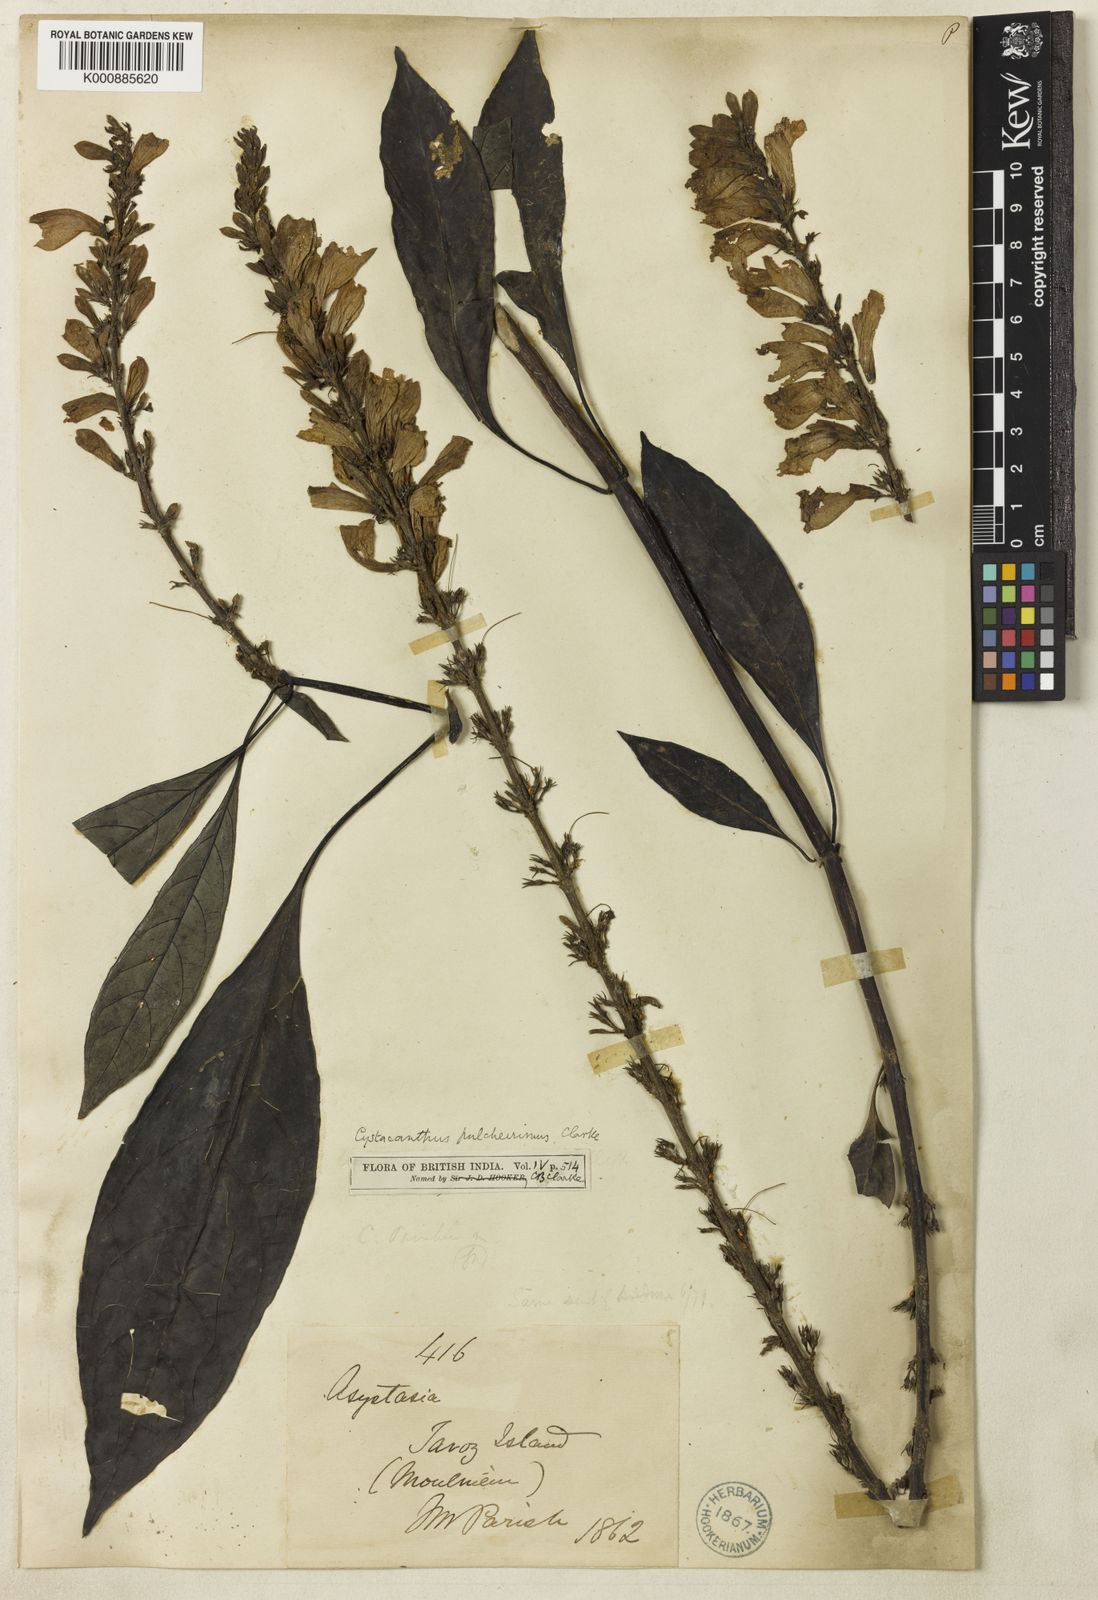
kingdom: Plantae
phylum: Tracheophyta
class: Magnoliopsida
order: Lamiales
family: Acanthaceae
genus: Phlogacanthus
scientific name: Phlogacanthus pulcherrimus
